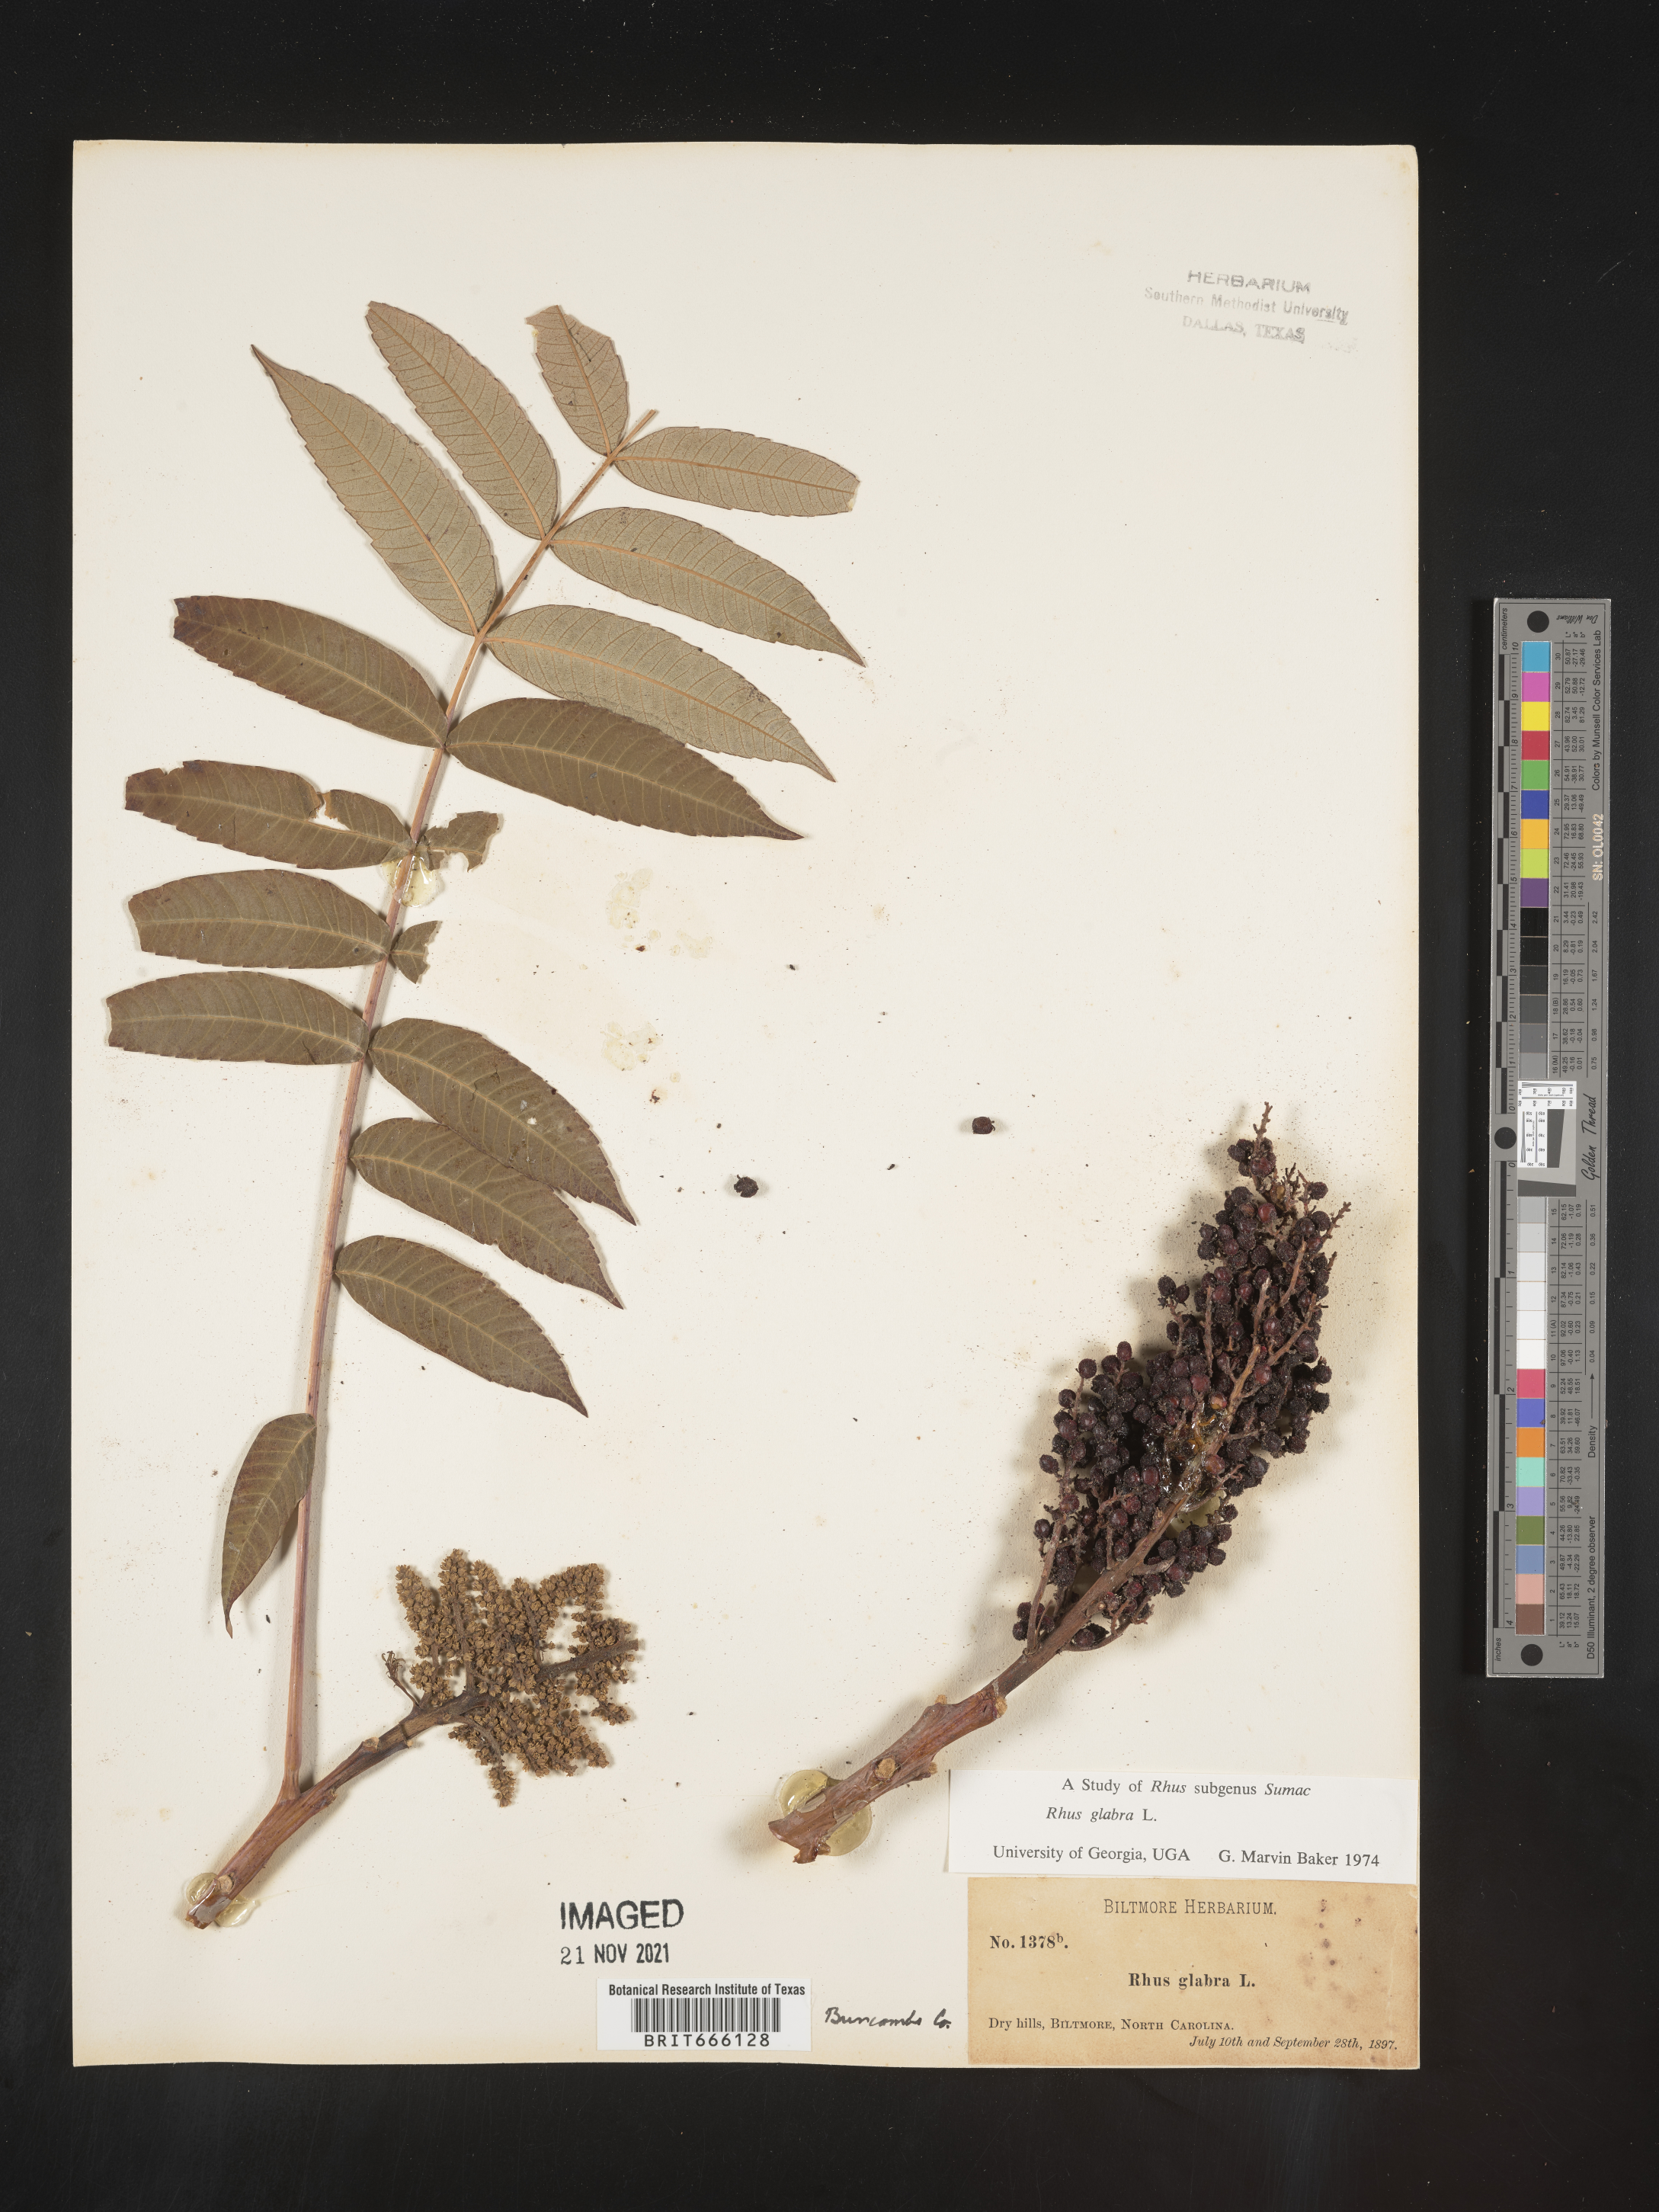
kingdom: Plantae
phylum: Tracheophyta
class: Magnoliopsida
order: Sapindales
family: Anacardiaceae
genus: Rhus
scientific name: Rhus glabra
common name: Scarlet sumac
